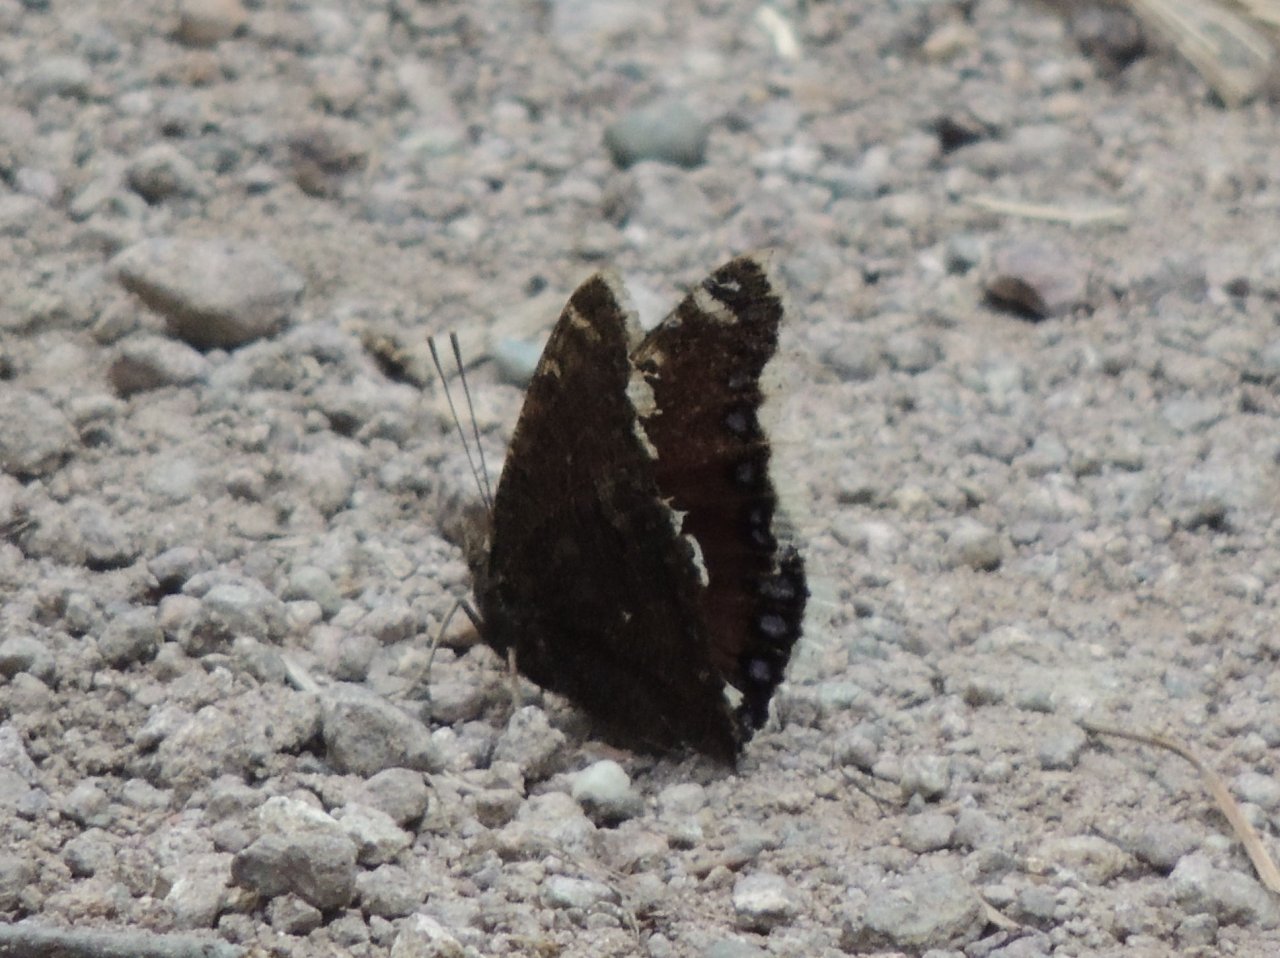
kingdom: Animalia
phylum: Arthropoda
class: Insecta
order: Lepidoptera
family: Nymphalidae
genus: Nymphalis
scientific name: Nymphalis antiopa
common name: Mourning Cloak
